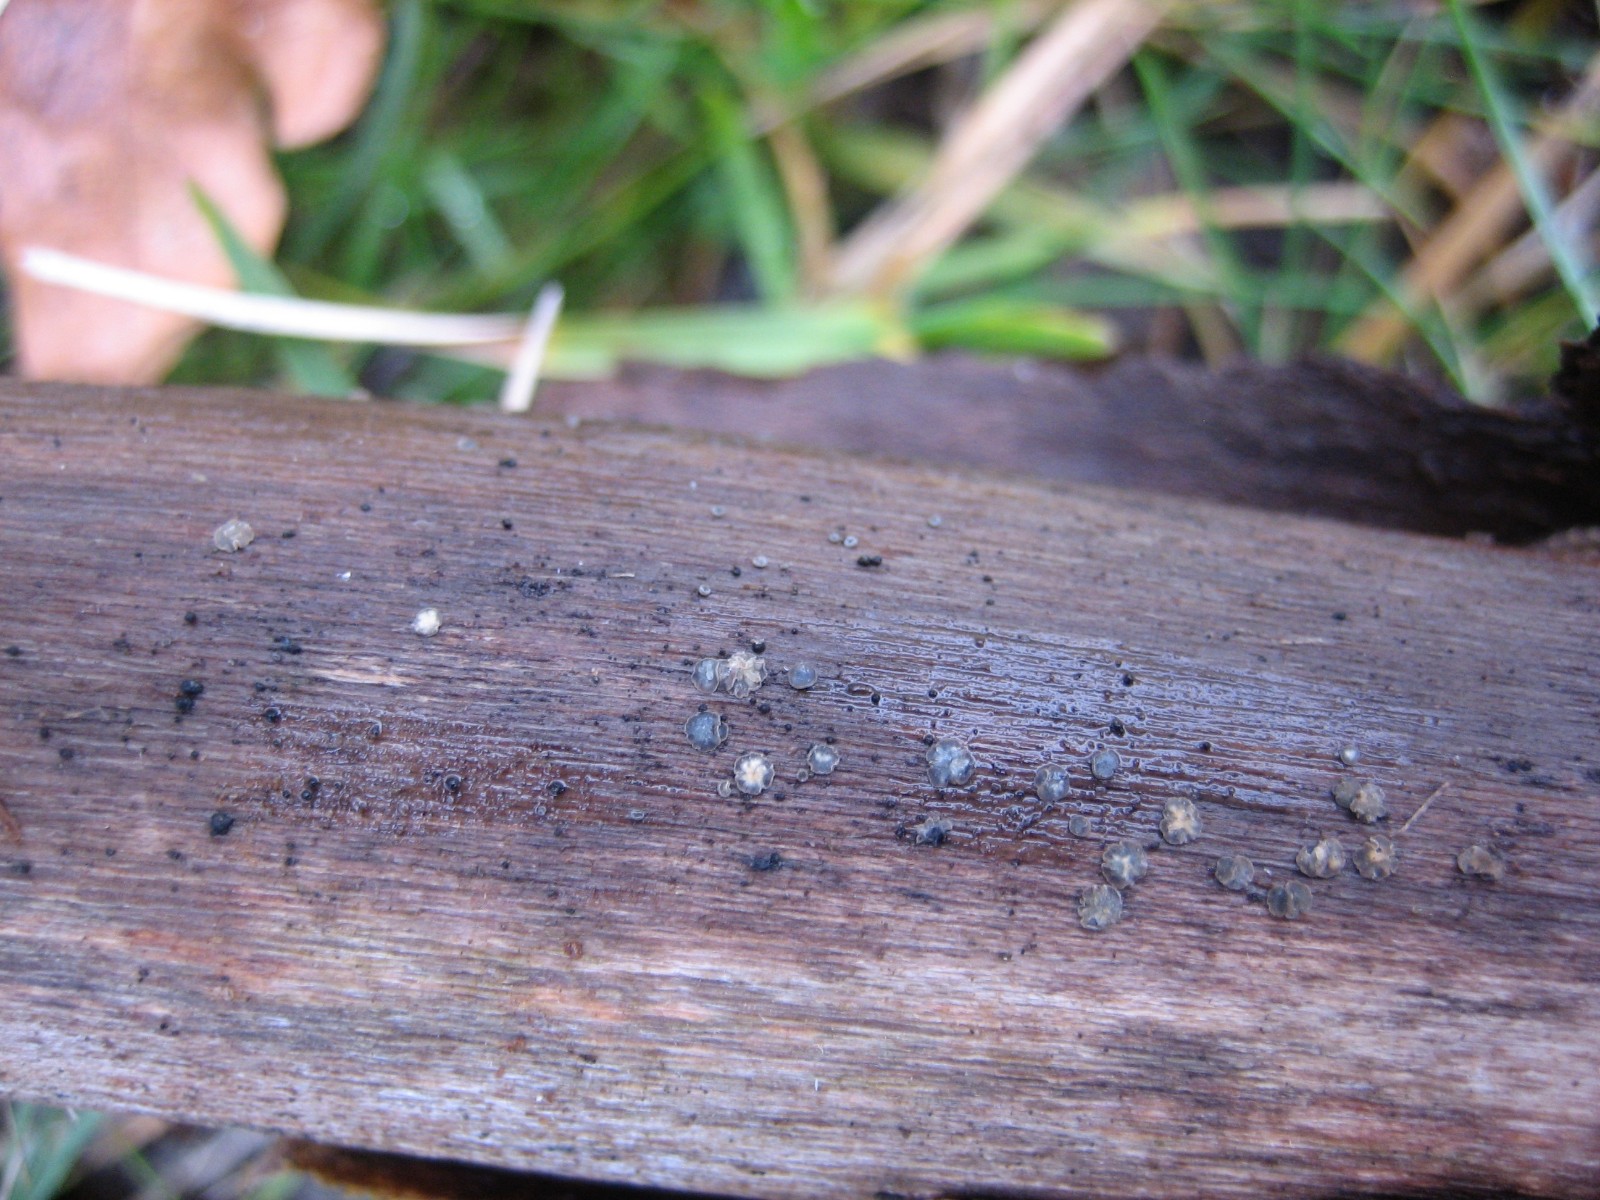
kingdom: Fungi
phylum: Ascomycota
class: Leotiomycetes
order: Helotiales
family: Mollisiaceae
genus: Mollisia
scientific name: Mollisia
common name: gråskive
